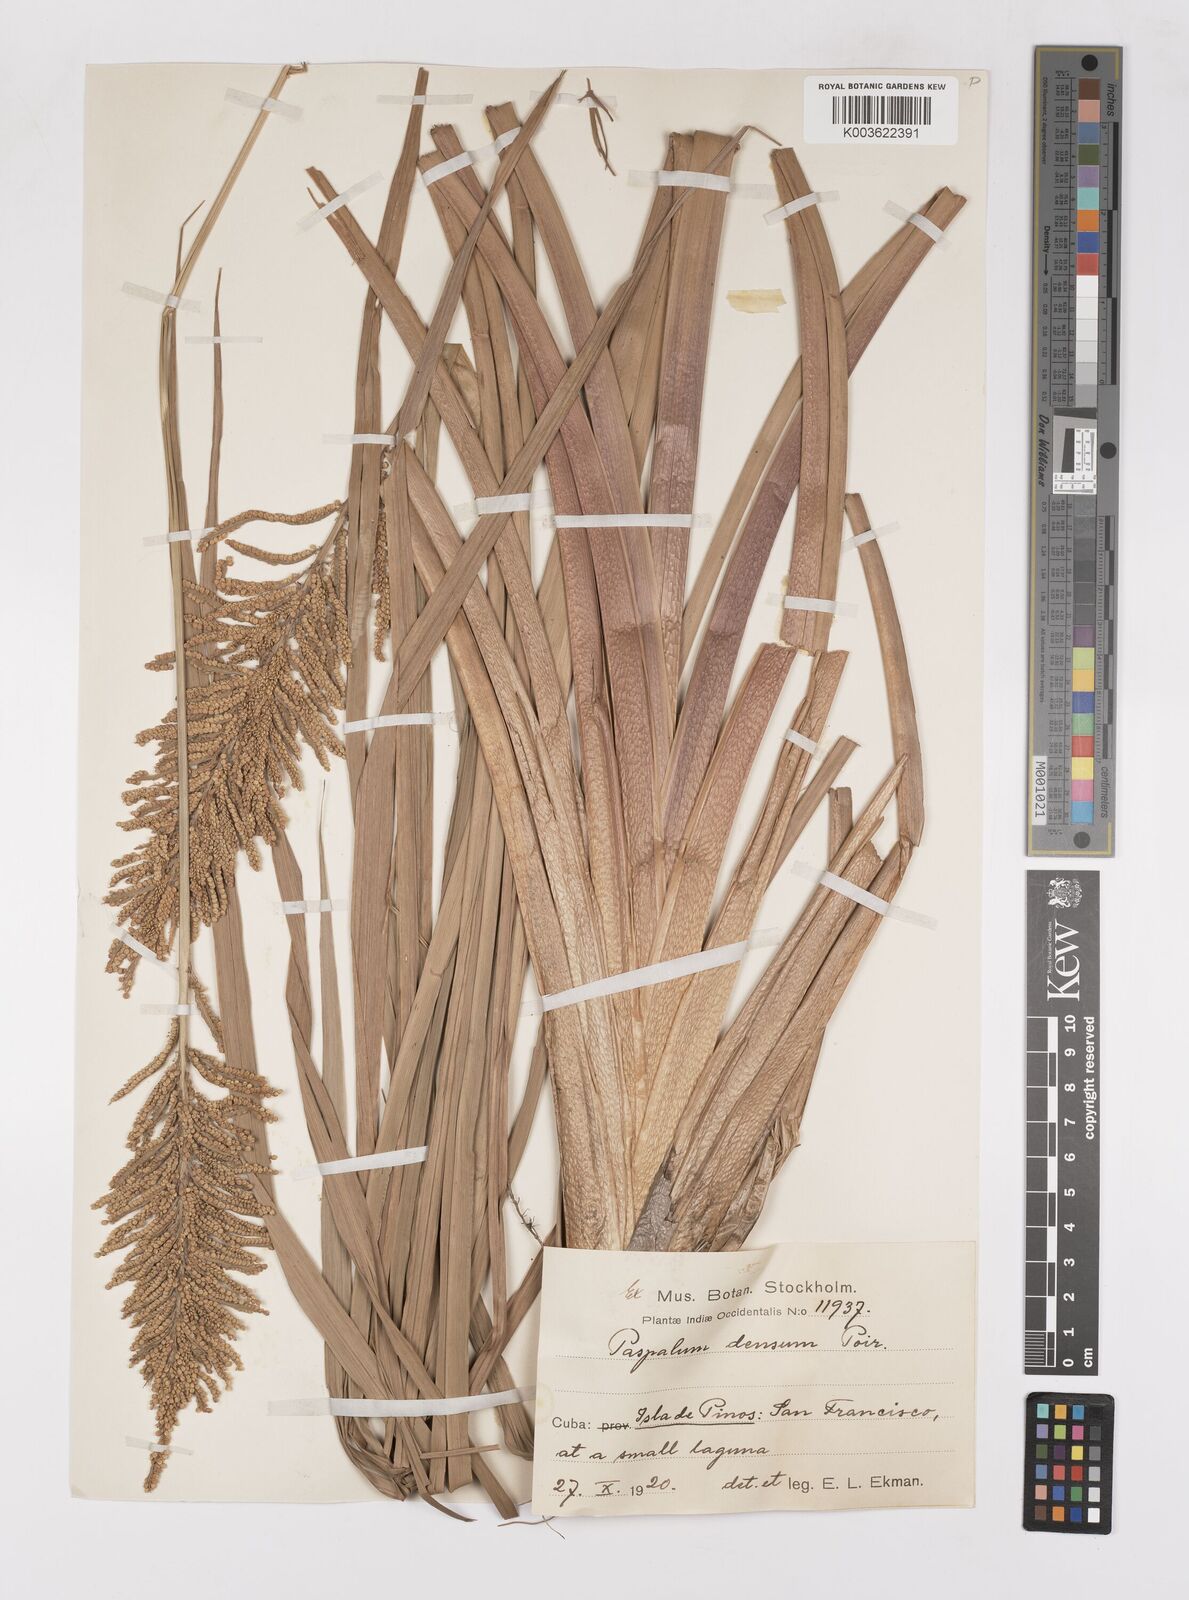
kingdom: Plantae
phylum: Tracheophyta
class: Liliopsida
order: Poales
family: Poaceae
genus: Paspalum
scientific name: Paspalum densum
